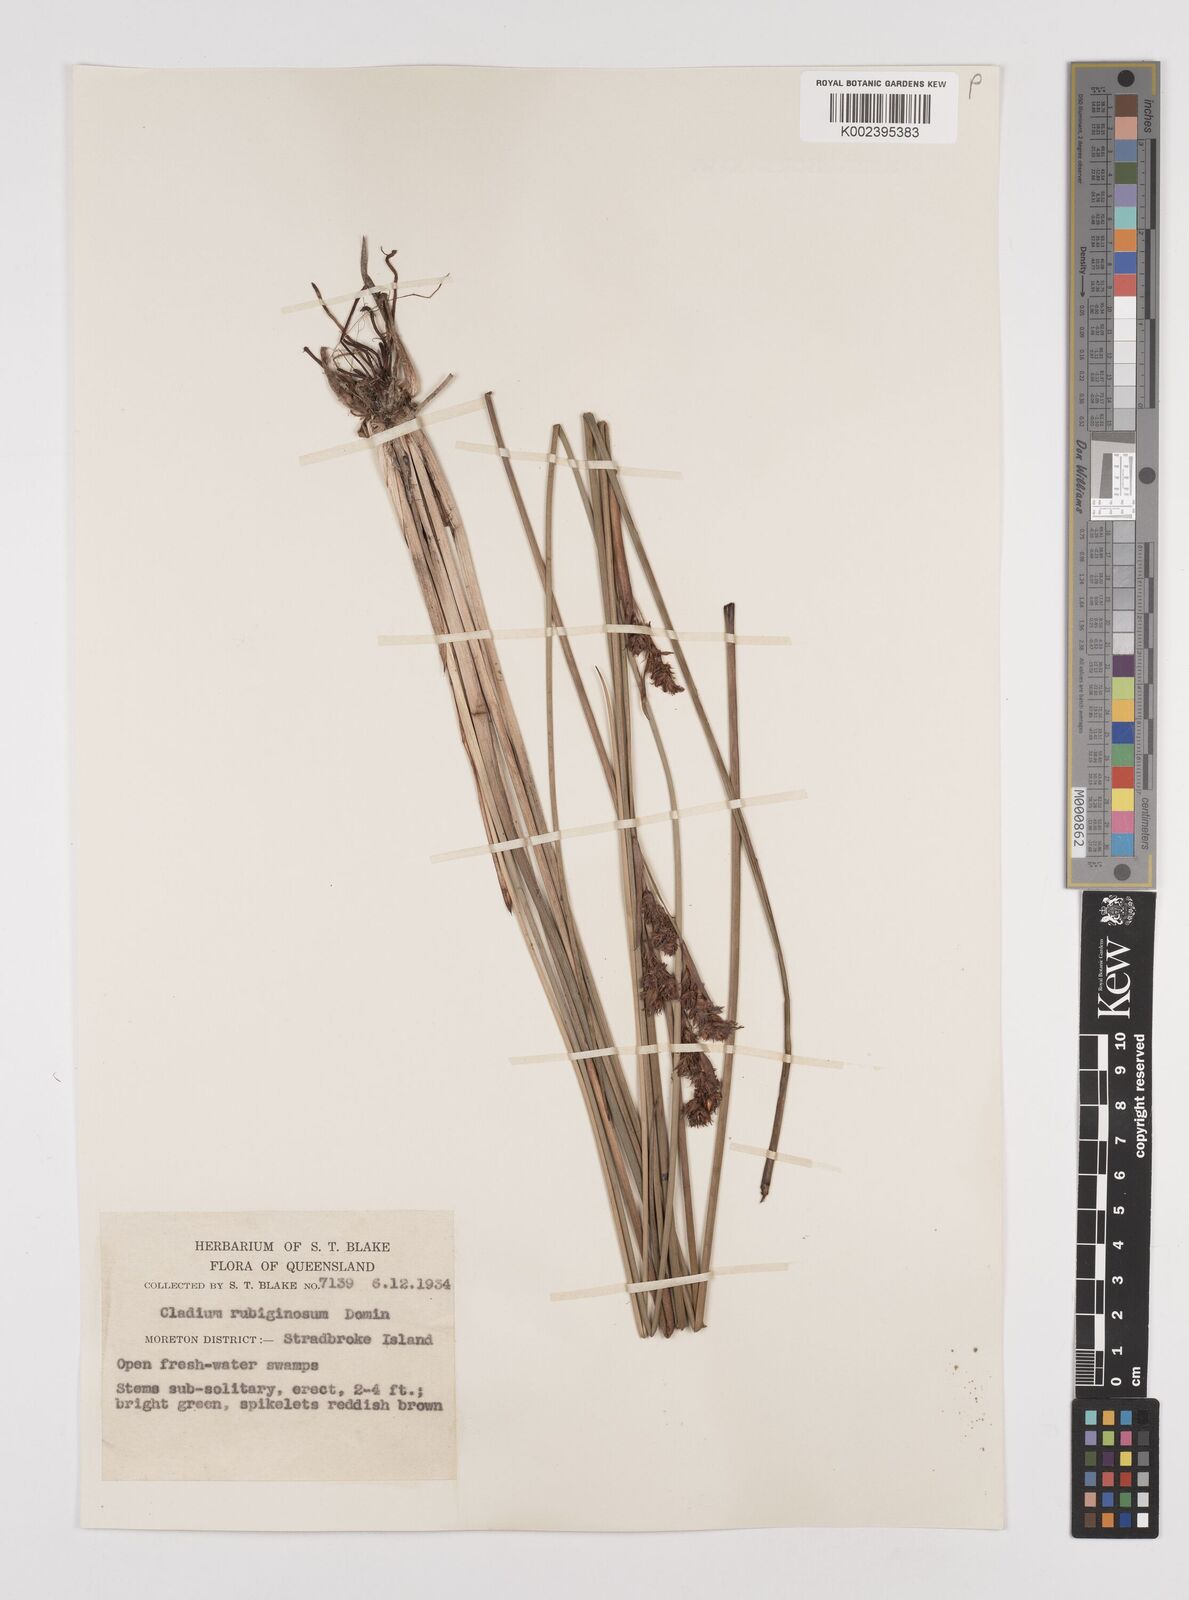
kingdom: Plantae
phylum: Tracheophyta
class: Liliopsida
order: Poales
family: Cyperaceae
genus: Machaerina
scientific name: Machaerina rubiginosa
